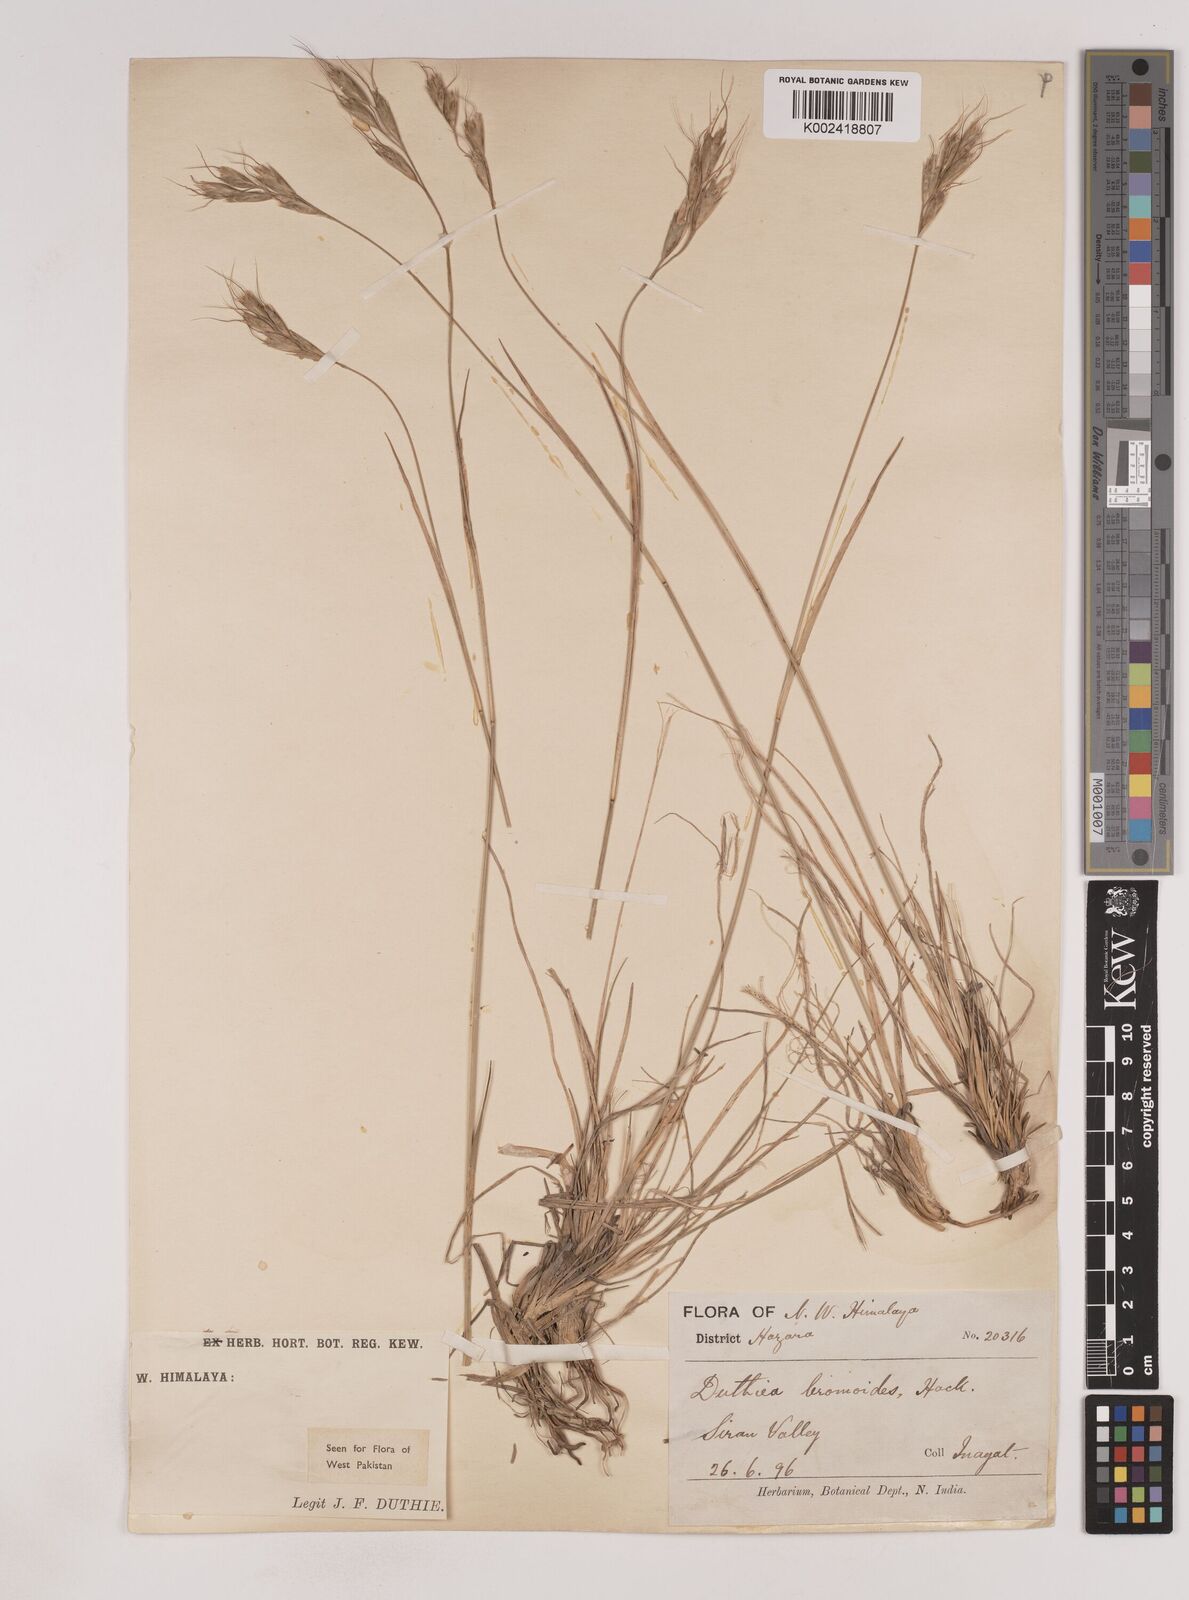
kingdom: Plantae
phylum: Tracheophyta
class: Liliopsida
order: Poales
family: Poaceae
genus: Duthiea
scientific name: Duthiea bromoides
